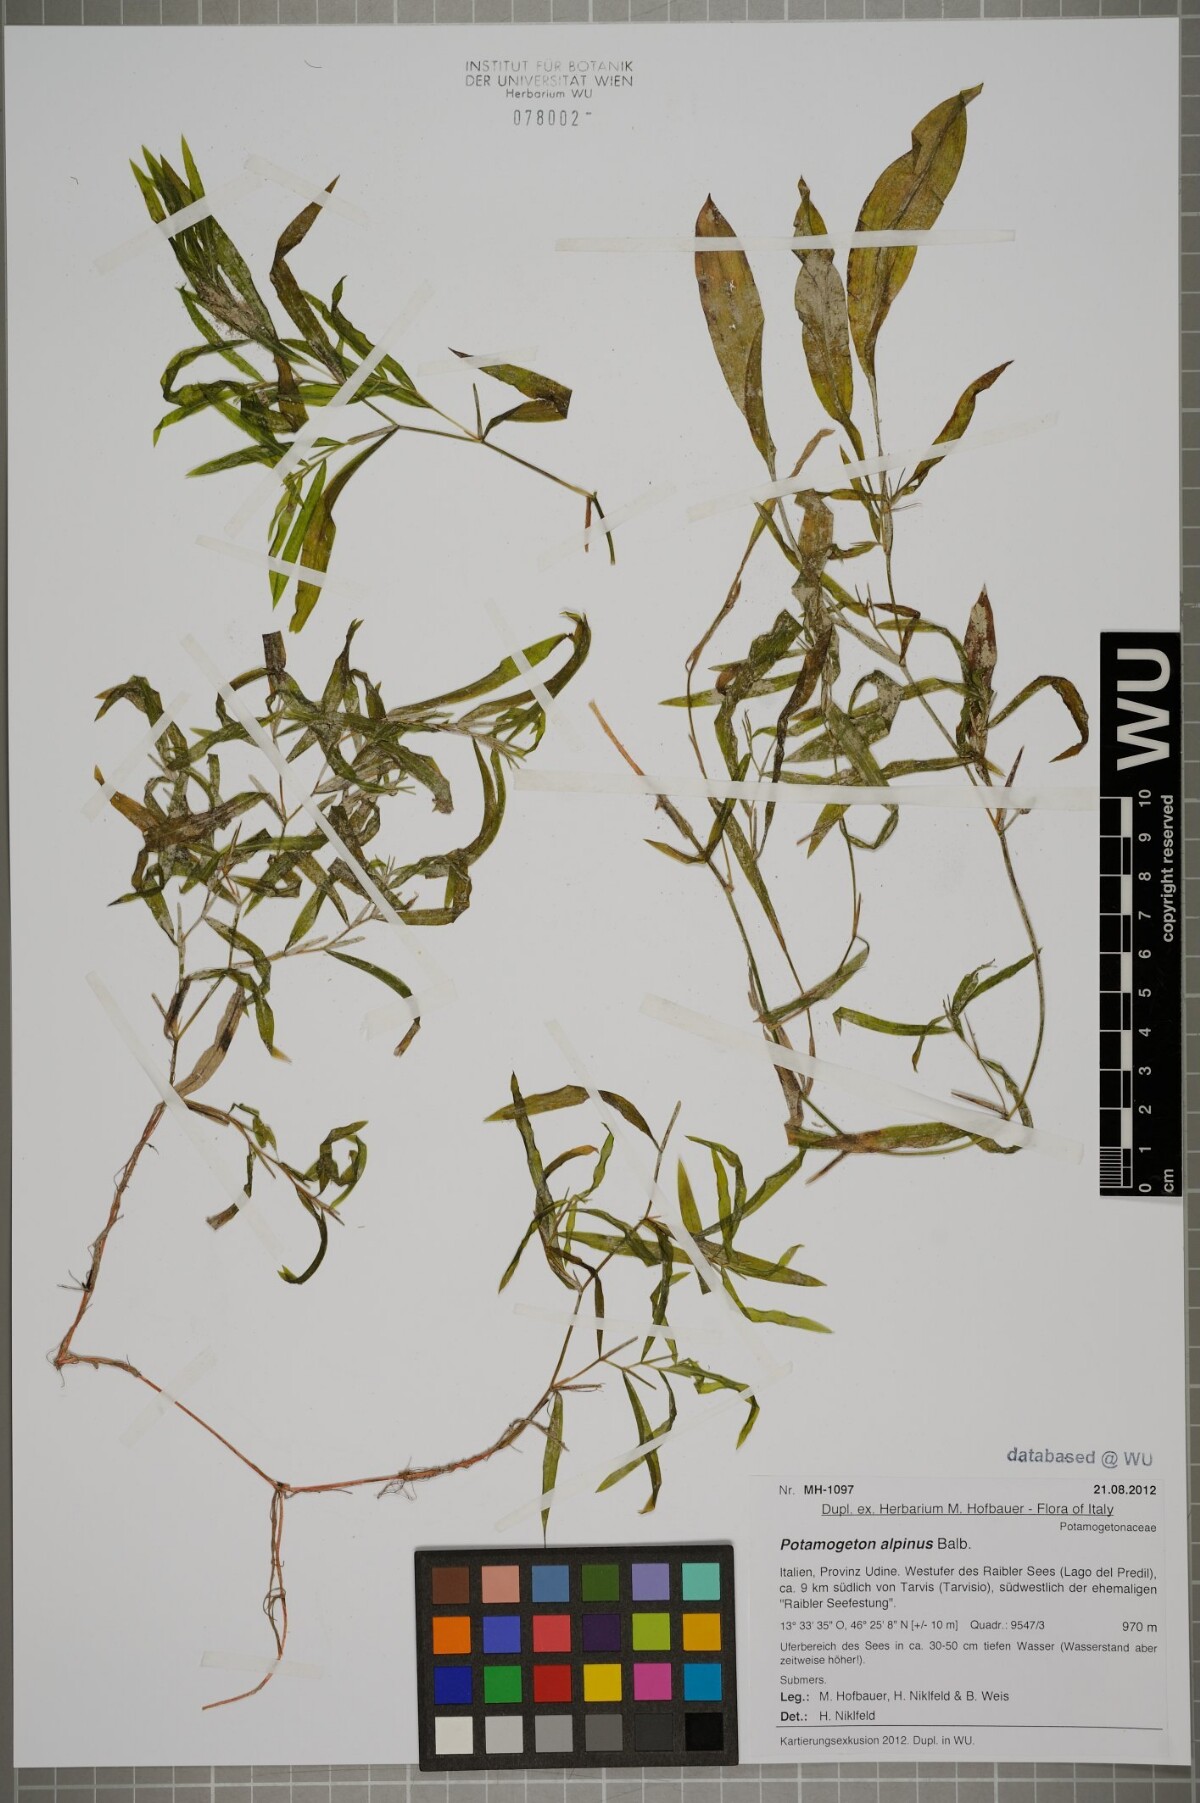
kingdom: Plantae
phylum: Tracheophyta
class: Liliopsida
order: Alismatales
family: Potamogetonaceae
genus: Potamogeton
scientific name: Potamogeton alpinus
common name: Red pondweed
